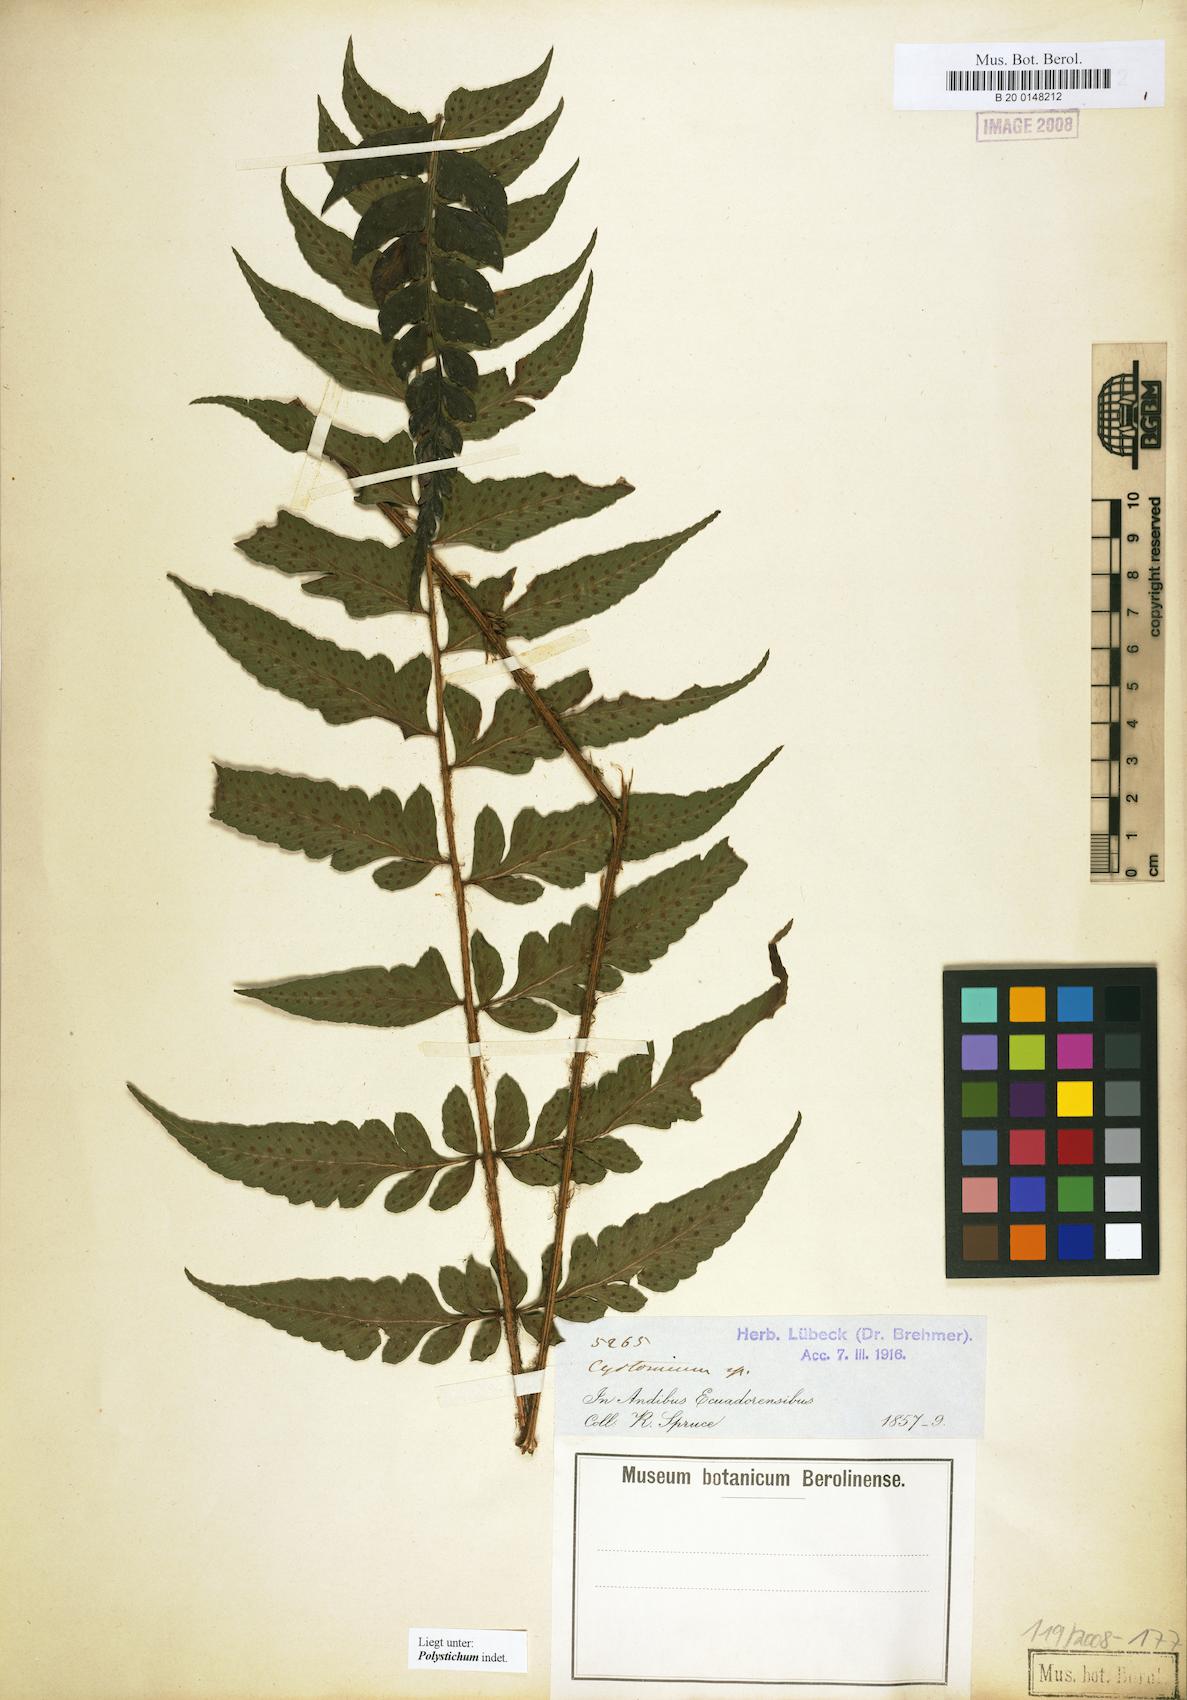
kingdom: Plantae
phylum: Tracheophyta
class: Polypodiopsida
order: Polypodiales
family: Dryopteridaceae
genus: Polystichum
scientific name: Polystichum
